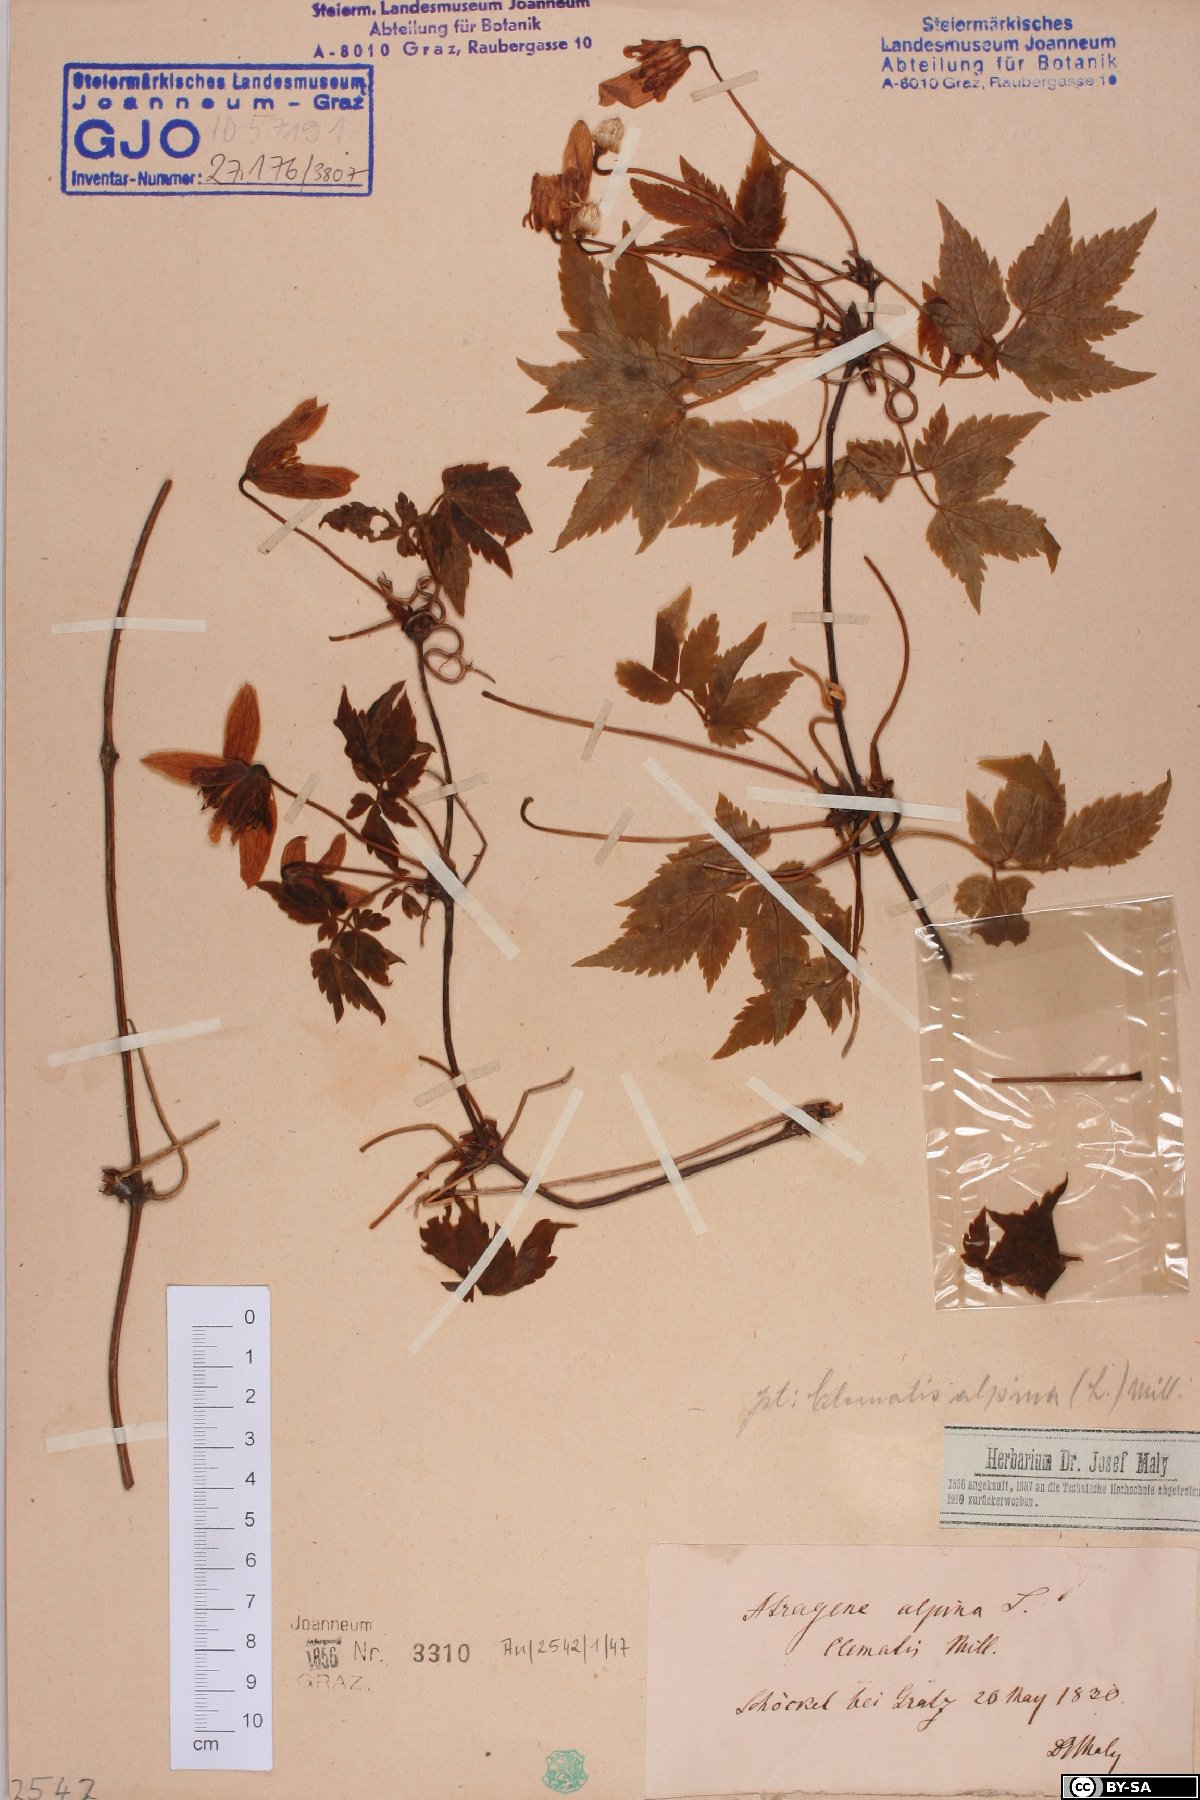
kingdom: Plantae
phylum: Tracheophyta
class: Magnoliopsida
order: Ranunculales
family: Ranunculaceae
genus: Clematis
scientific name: Clematis alpina
